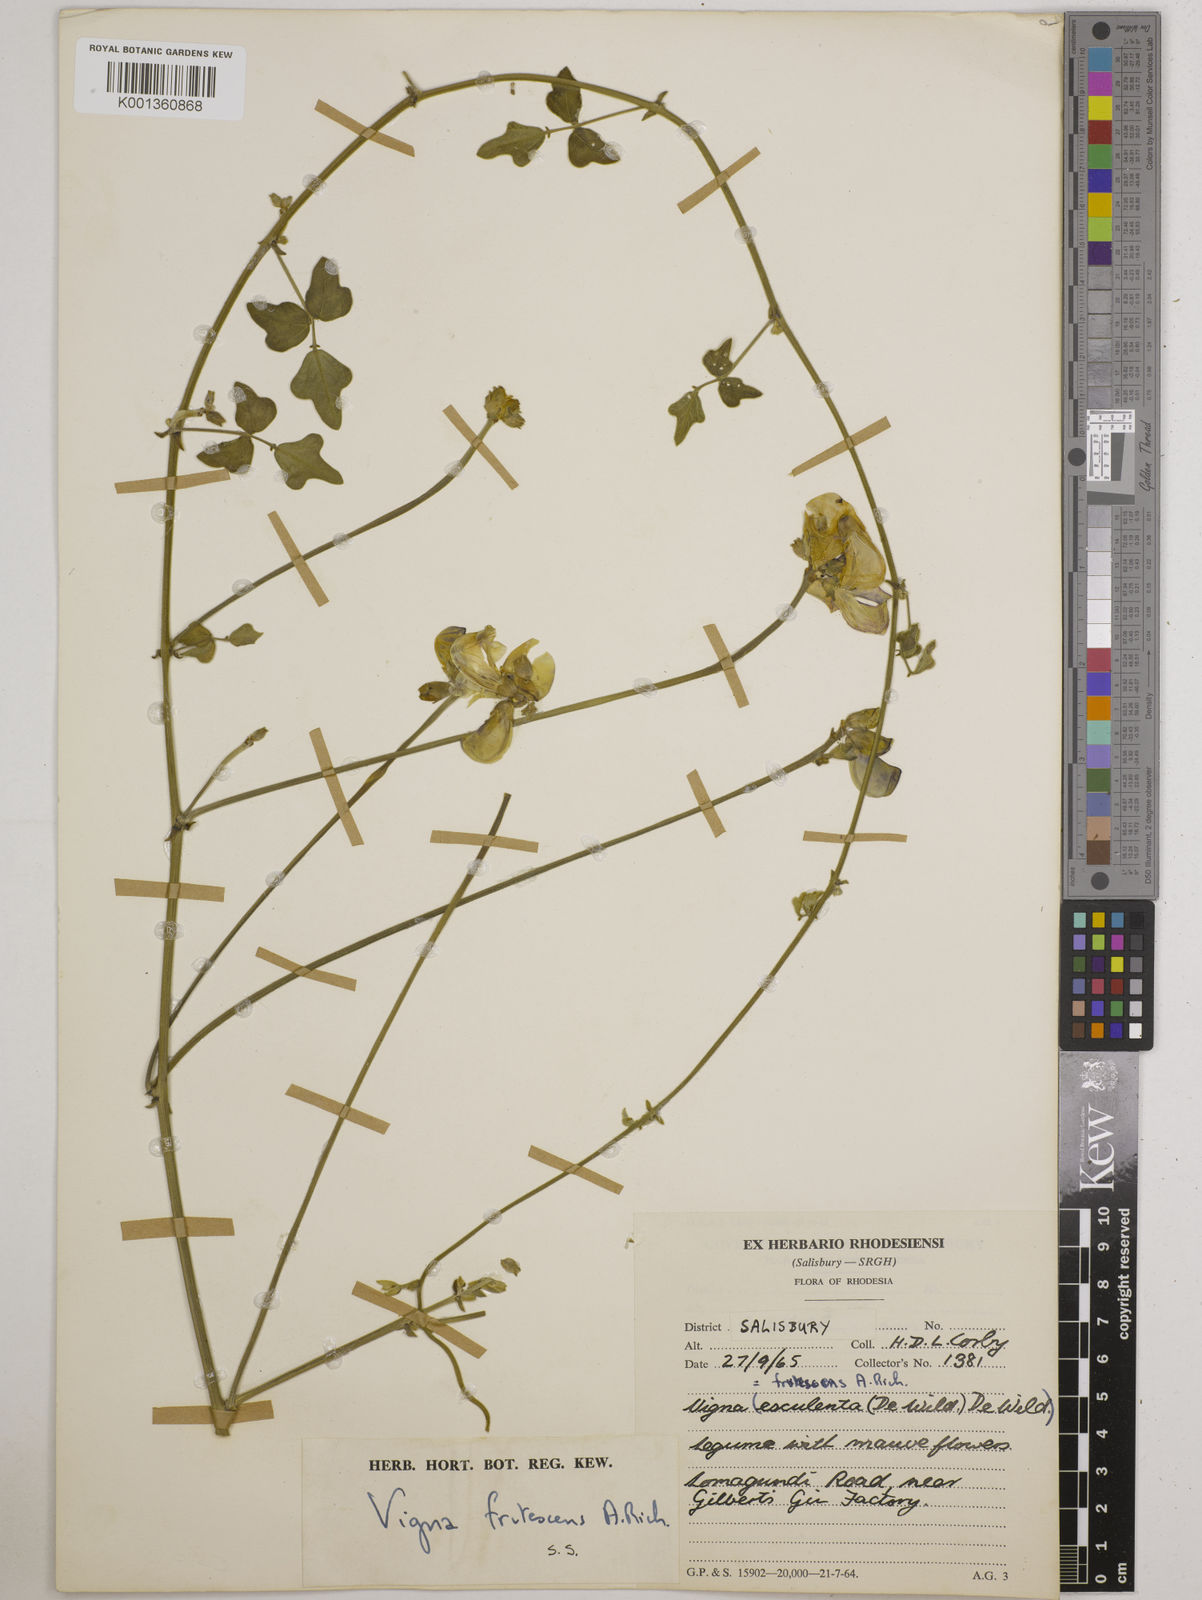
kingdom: Plantae
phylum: Tracheophyta
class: Magnoliopsida
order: Fabales
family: Fabaceae
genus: Vigna
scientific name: Vigna
